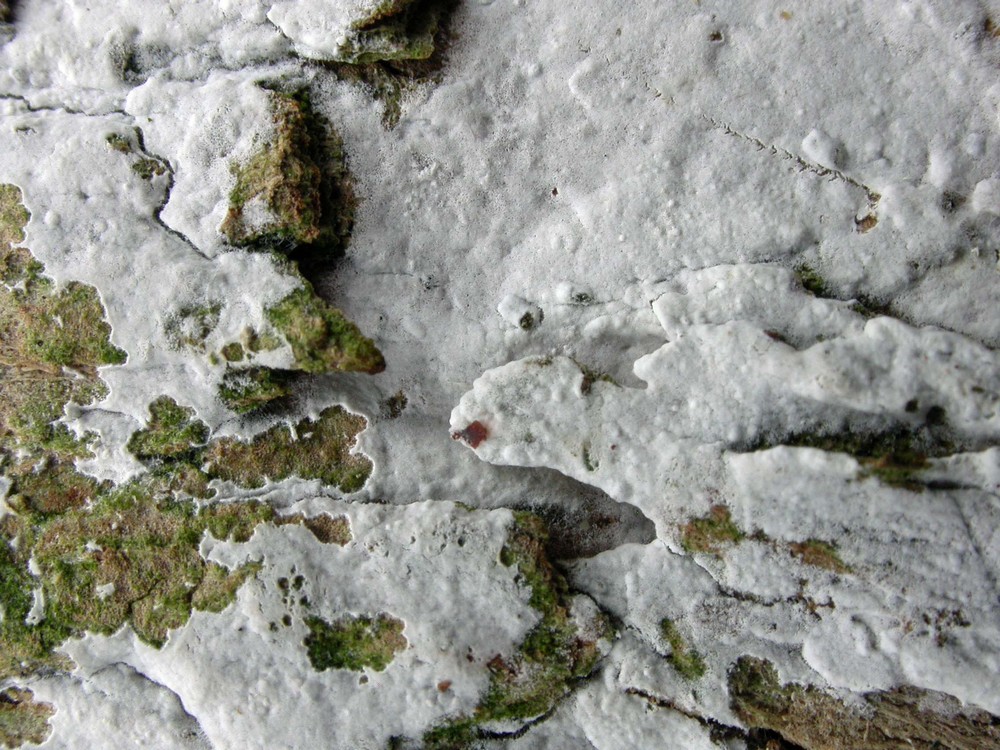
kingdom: Fungi
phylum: Basidiomycota
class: Agaricomycetes
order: Corticiales
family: Corticiaceae
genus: Lyomyces
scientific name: Lyomyces sambuci
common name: almindelig hyldehinde
